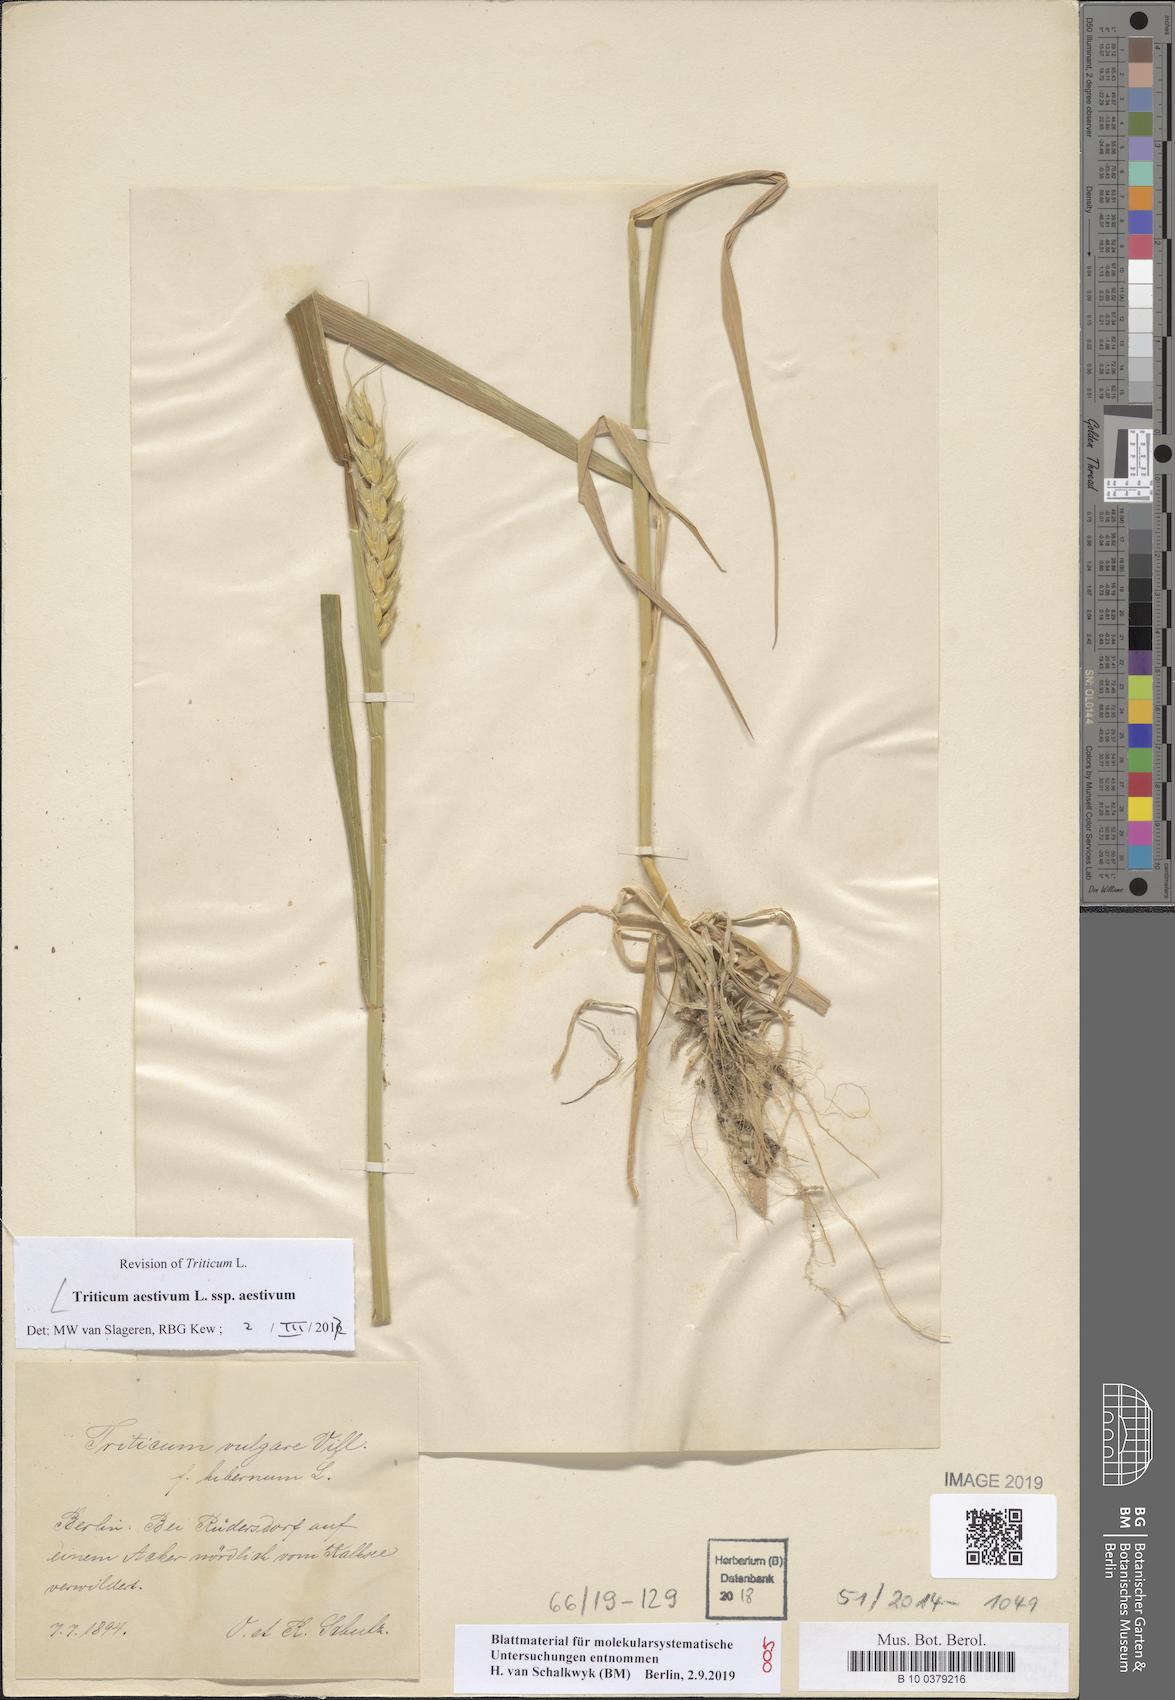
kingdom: Plantae
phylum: Tracheophyta
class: Liliopsida
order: Poales
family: Poaceae
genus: Triticum
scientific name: Triticum aestivum
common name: Common wheat
